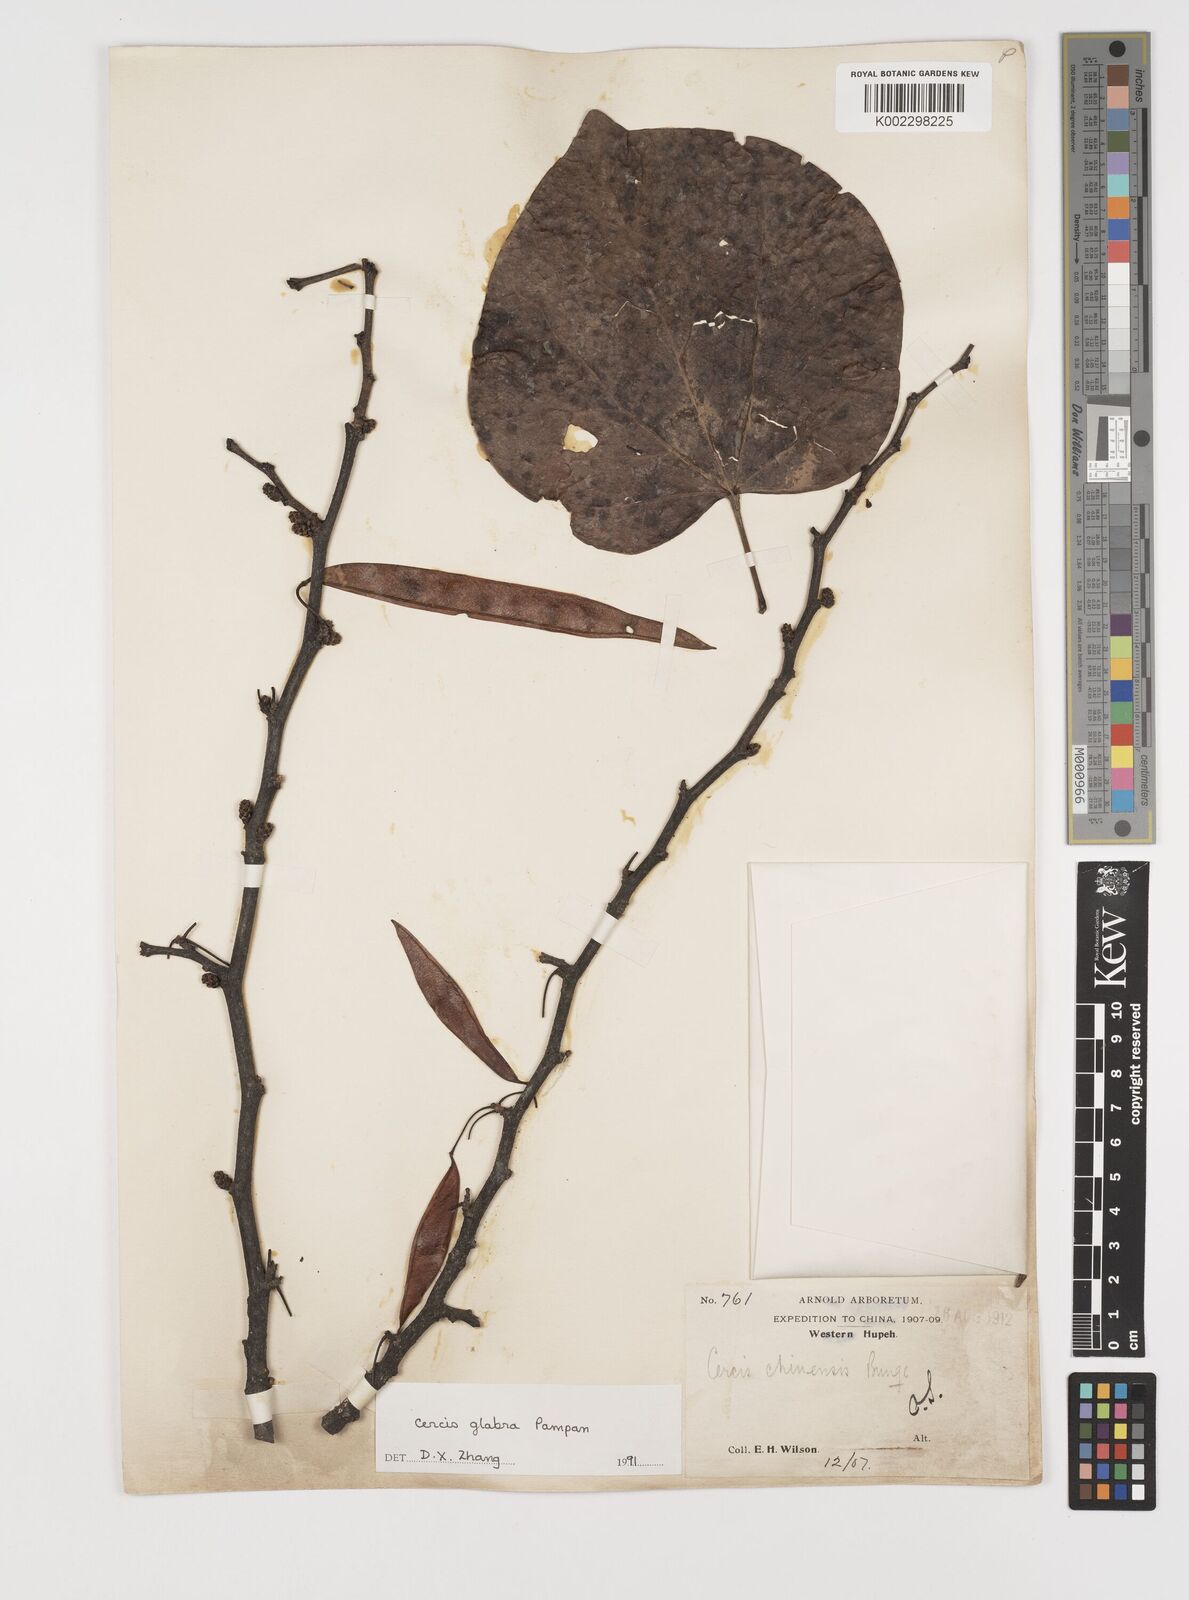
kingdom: Plantae
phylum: Tracheophyta
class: Magnoliopsida
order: Fabales
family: Fabaceae
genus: Cercis
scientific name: Cercis glabra
